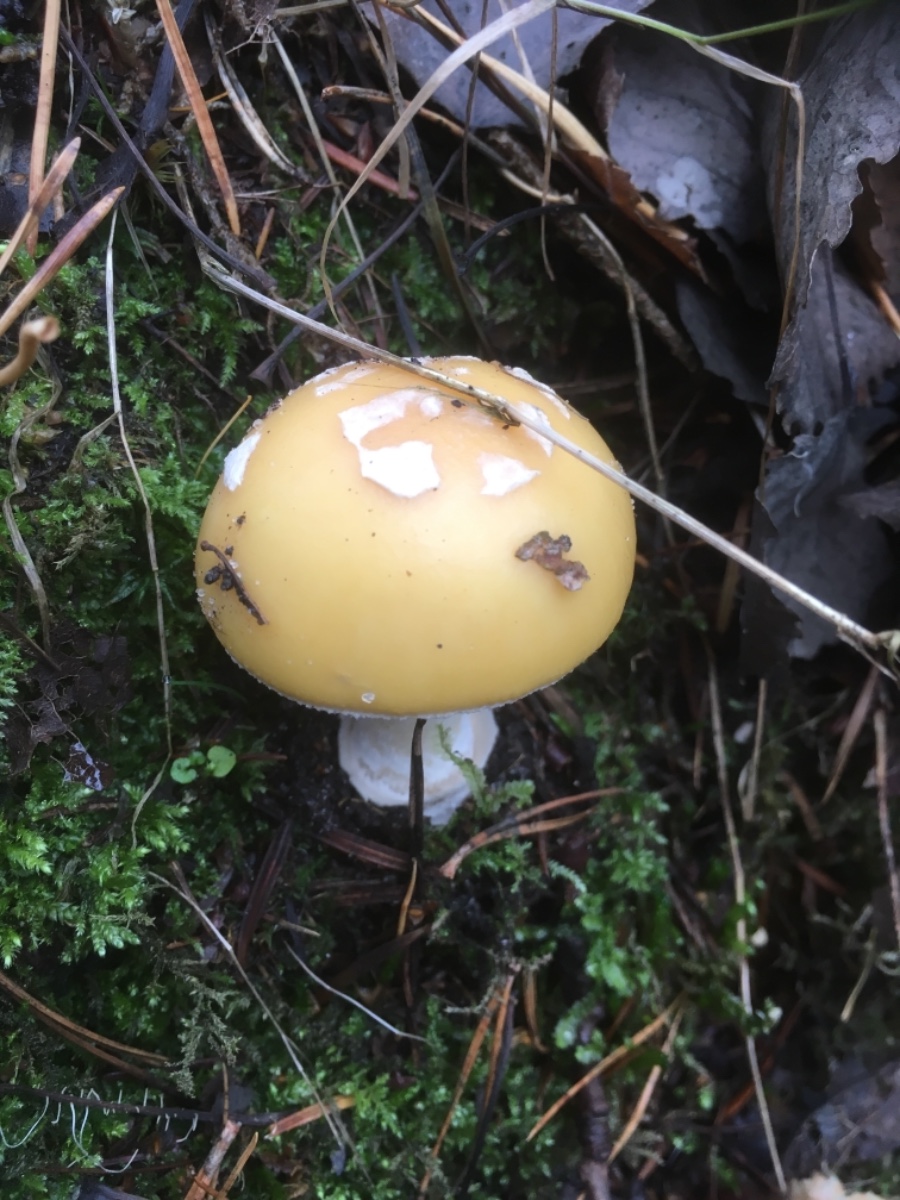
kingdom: Fungi
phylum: Basidiomycota
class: Agaricomycetes
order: Agaricales
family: Amanitaceae
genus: Amanita
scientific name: Amanita gemmata
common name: okkergul fluesvamp
